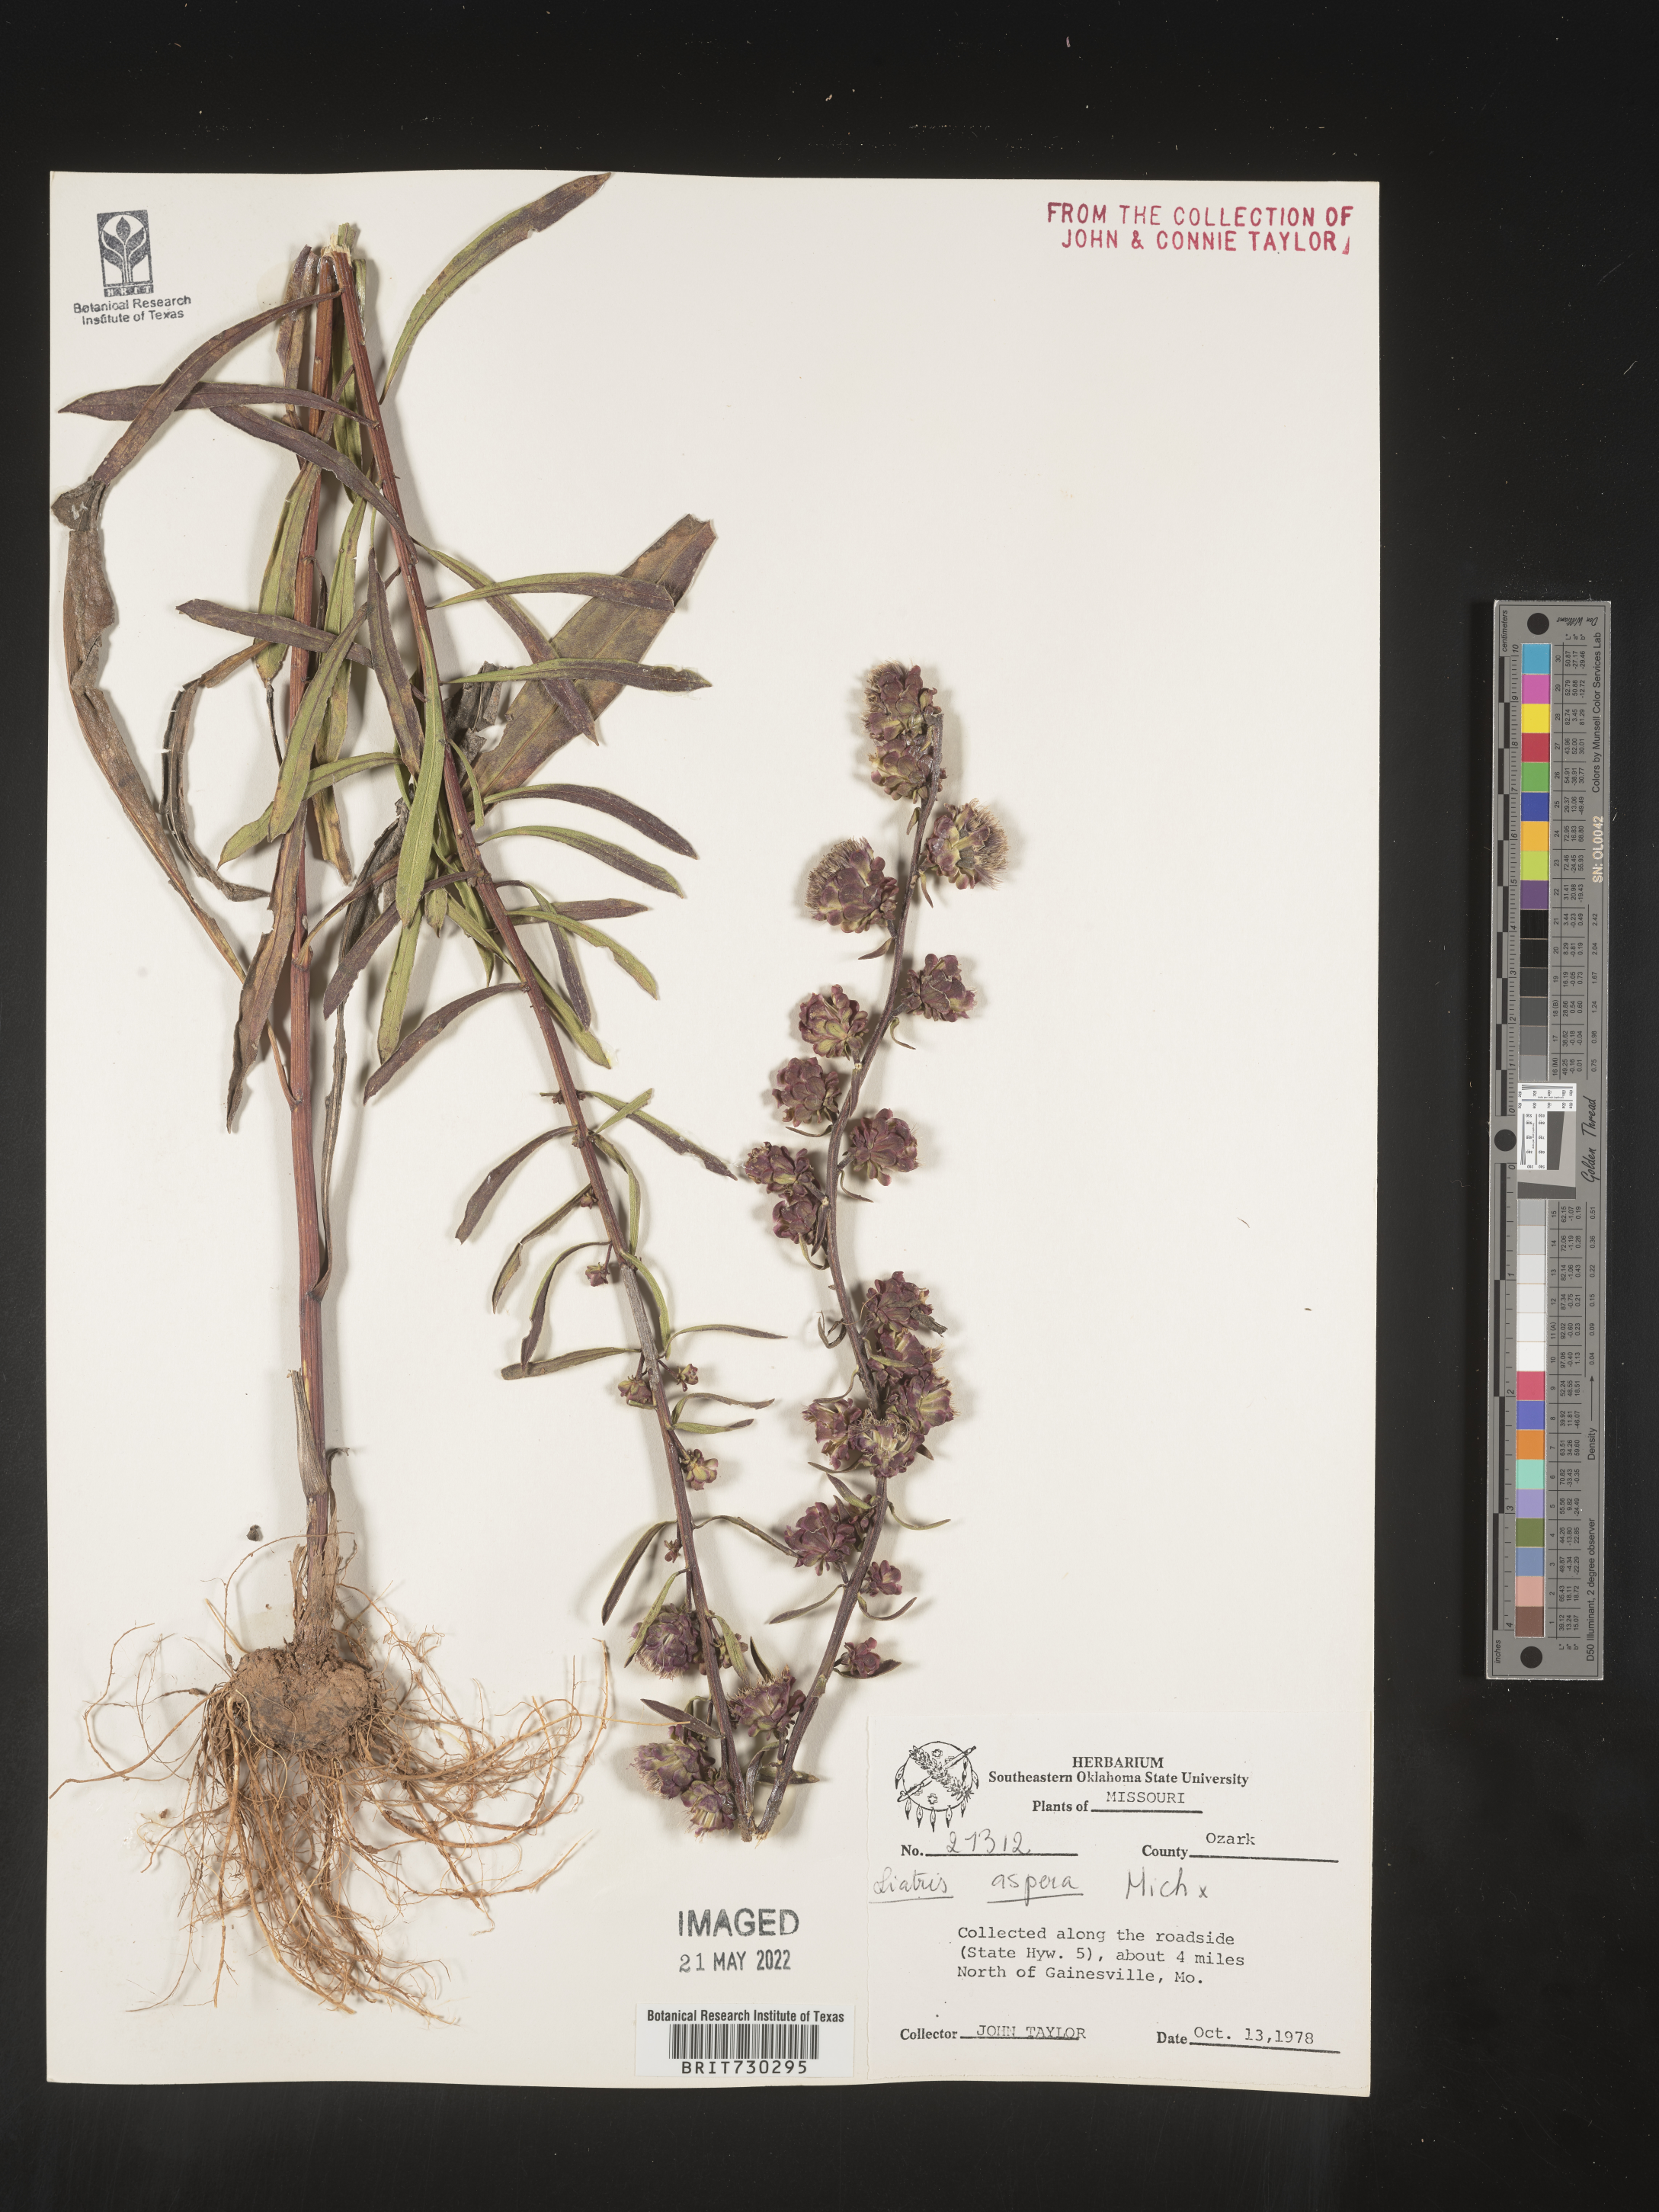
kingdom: Plantae
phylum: Tracheophyta
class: Magnoliopsida
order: Asterales
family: Asteraceae
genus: Liatris
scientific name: Liatris aspera
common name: Lacerate blazing-star
